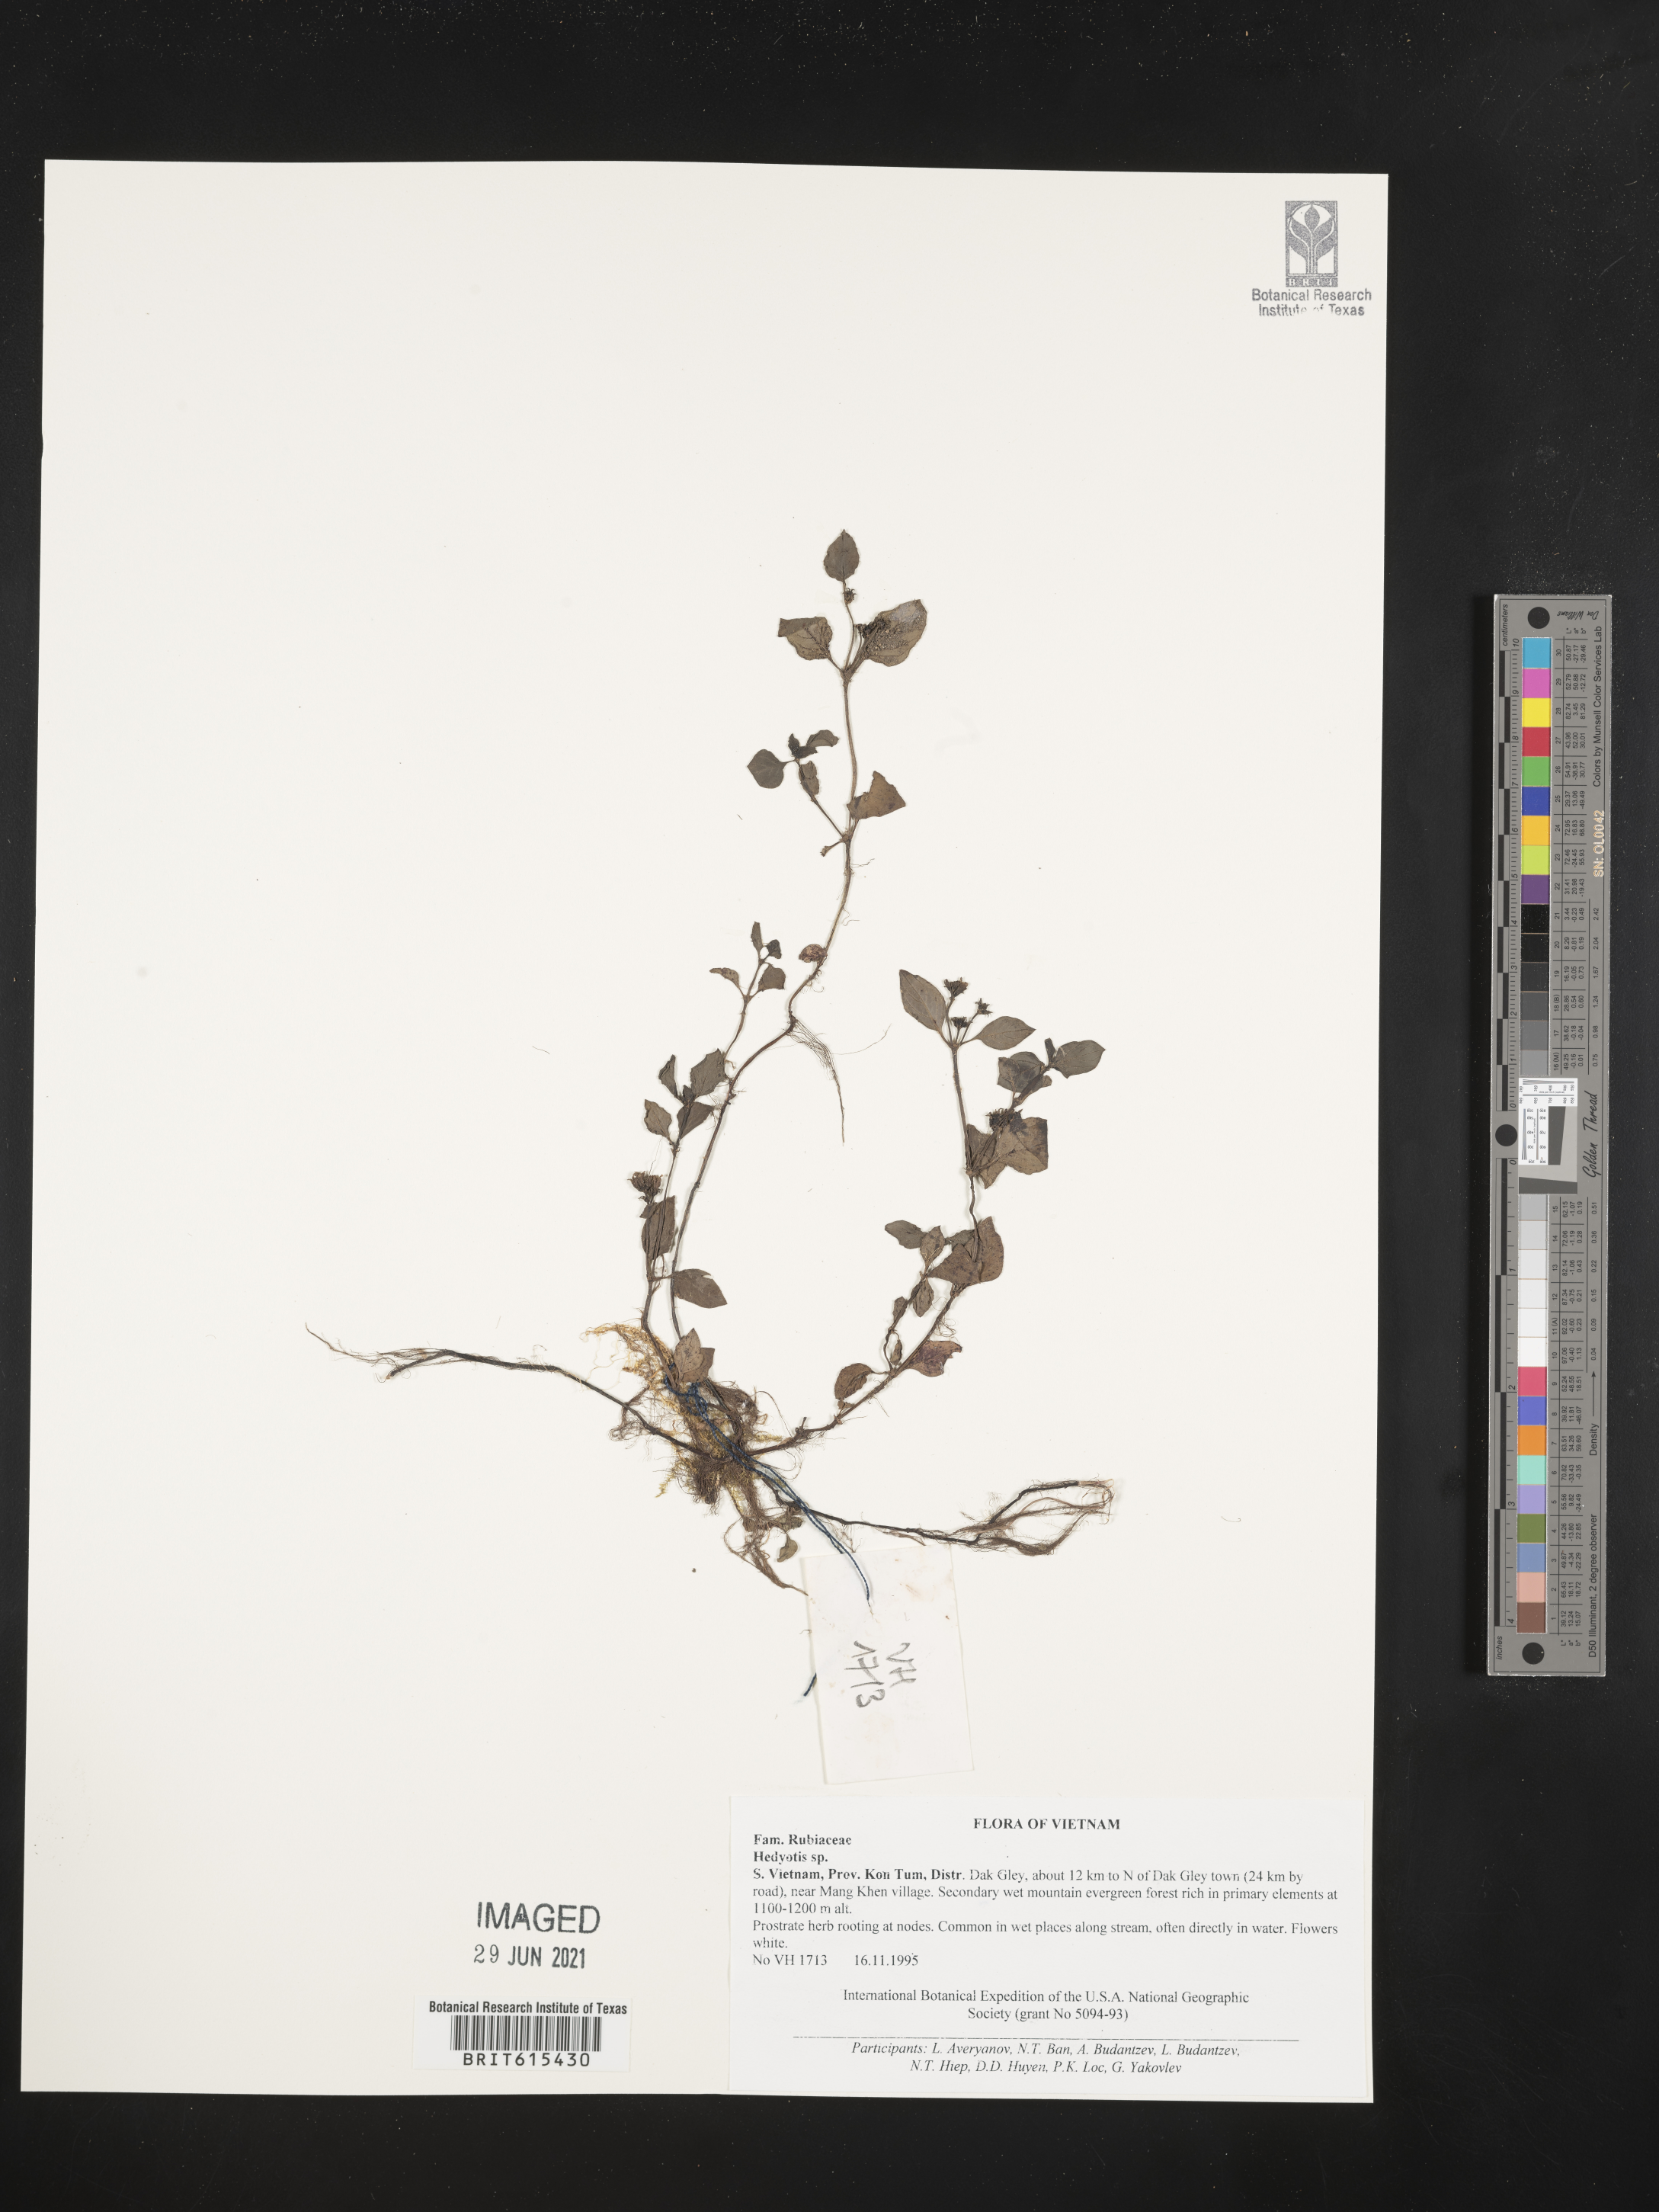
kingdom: Plantae
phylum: Tracheophyta
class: Magnoliopsida
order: Gentianales
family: Rubiaceae
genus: Hedyotis
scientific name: Hedyotis
